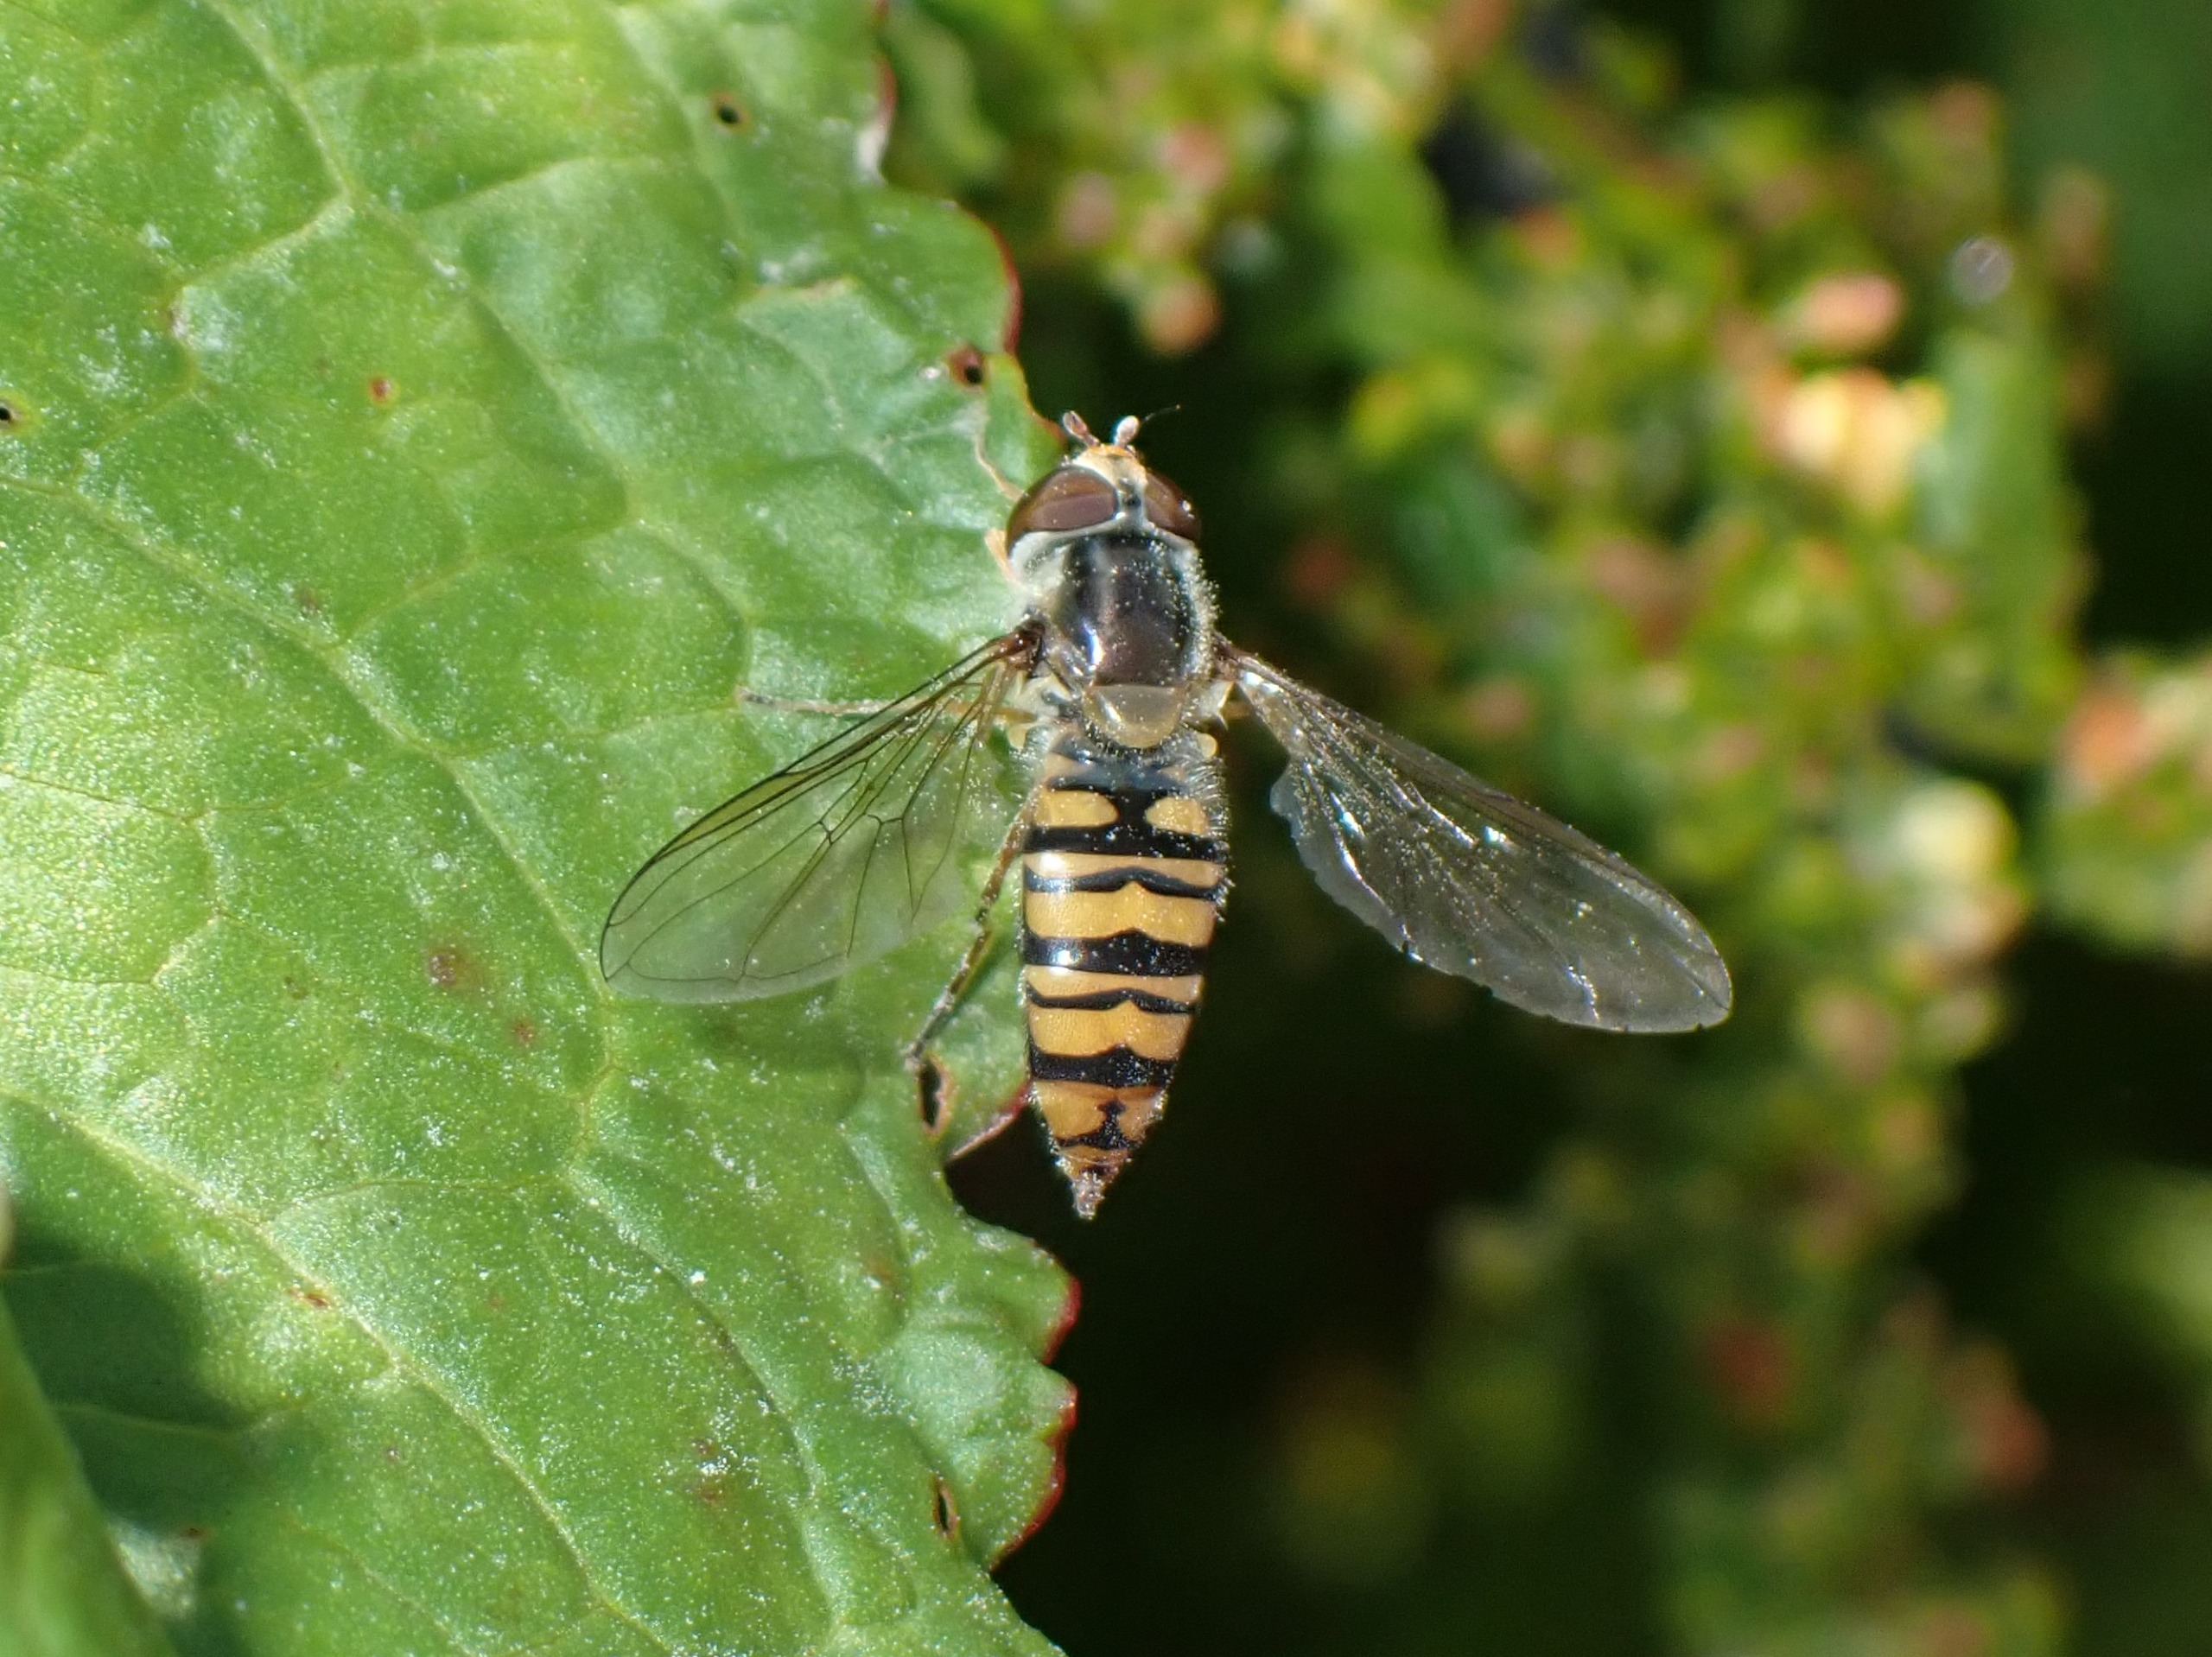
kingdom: Animalia
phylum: Arthropoda
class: Insecta
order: Diptera
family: Syrphidae
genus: Episyrphus
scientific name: Episyrphus balteatus
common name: Dobbeltbåndet svirreflue
